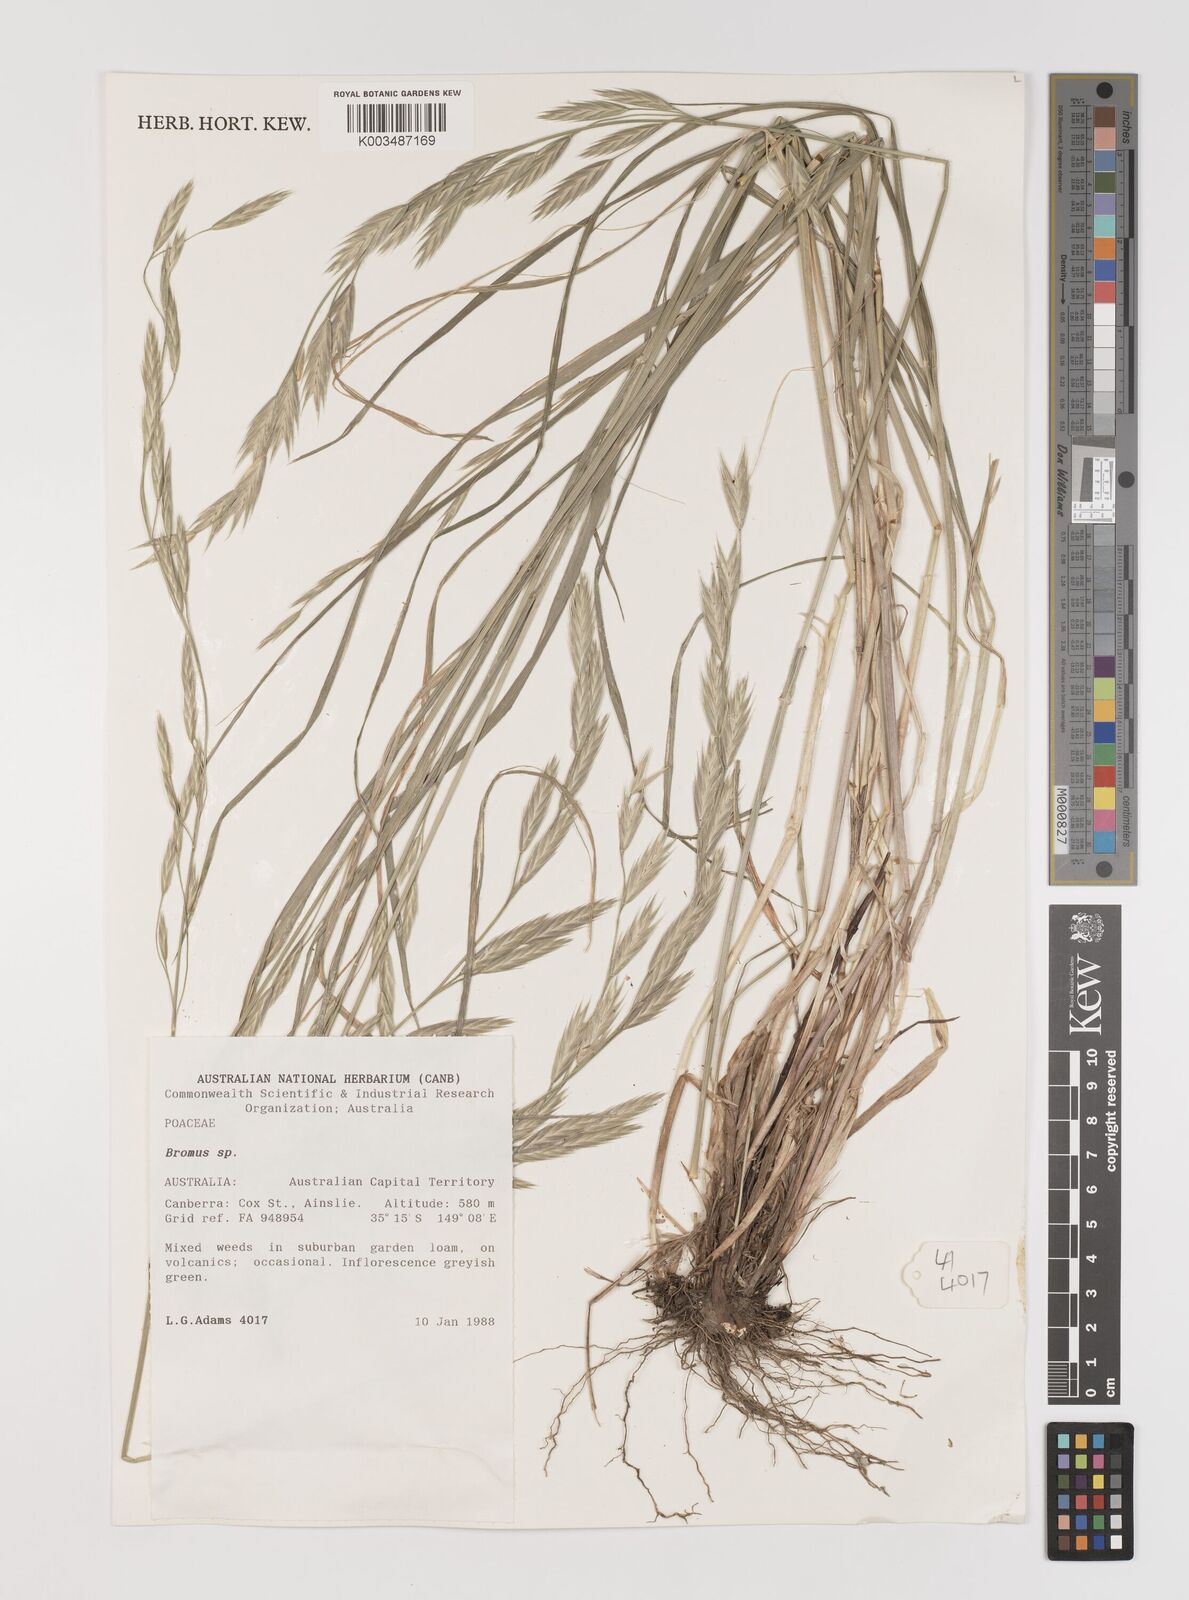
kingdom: Plantae
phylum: Tracheophyta
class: Liliopsida
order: Poales
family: Poaceae
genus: Bromus
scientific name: Bromus catharticus
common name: Rescuegrass
